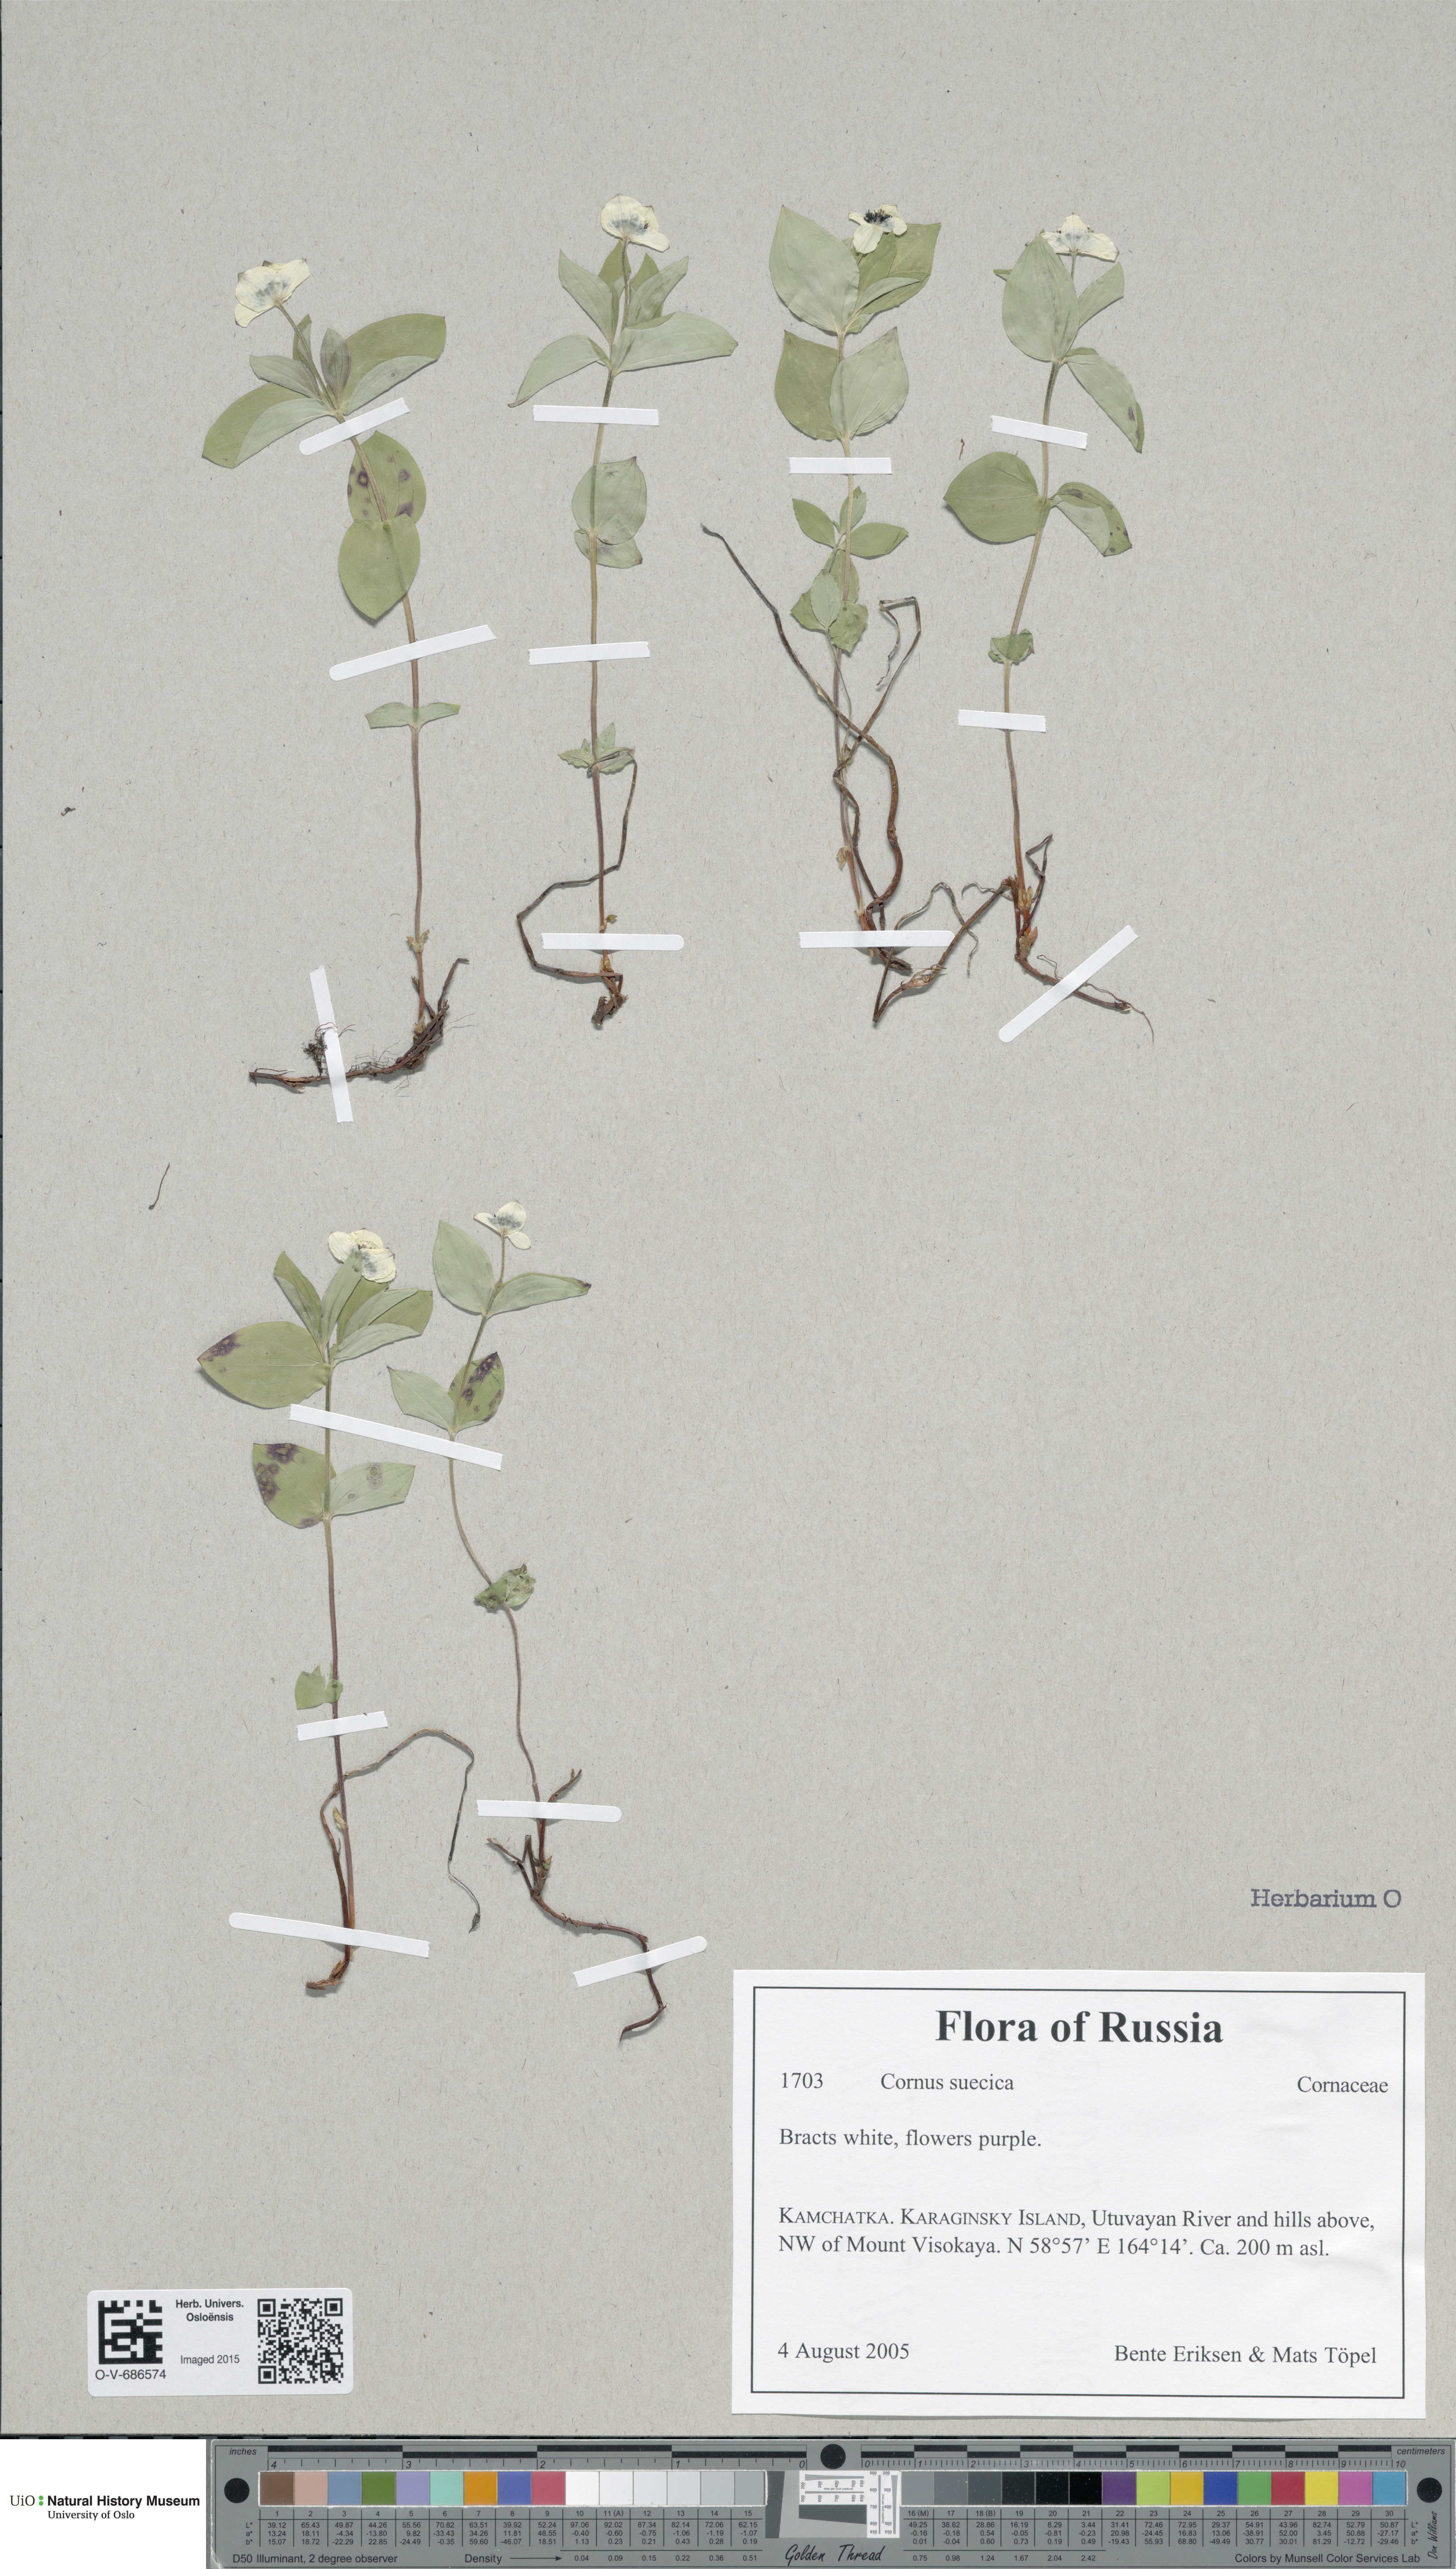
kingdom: Plantae
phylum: Tracheophyta
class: Magnoliopsida
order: Cornales
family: Cornaceae
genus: Cornus
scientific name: Cornus suecica
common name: Dwarf cornel
